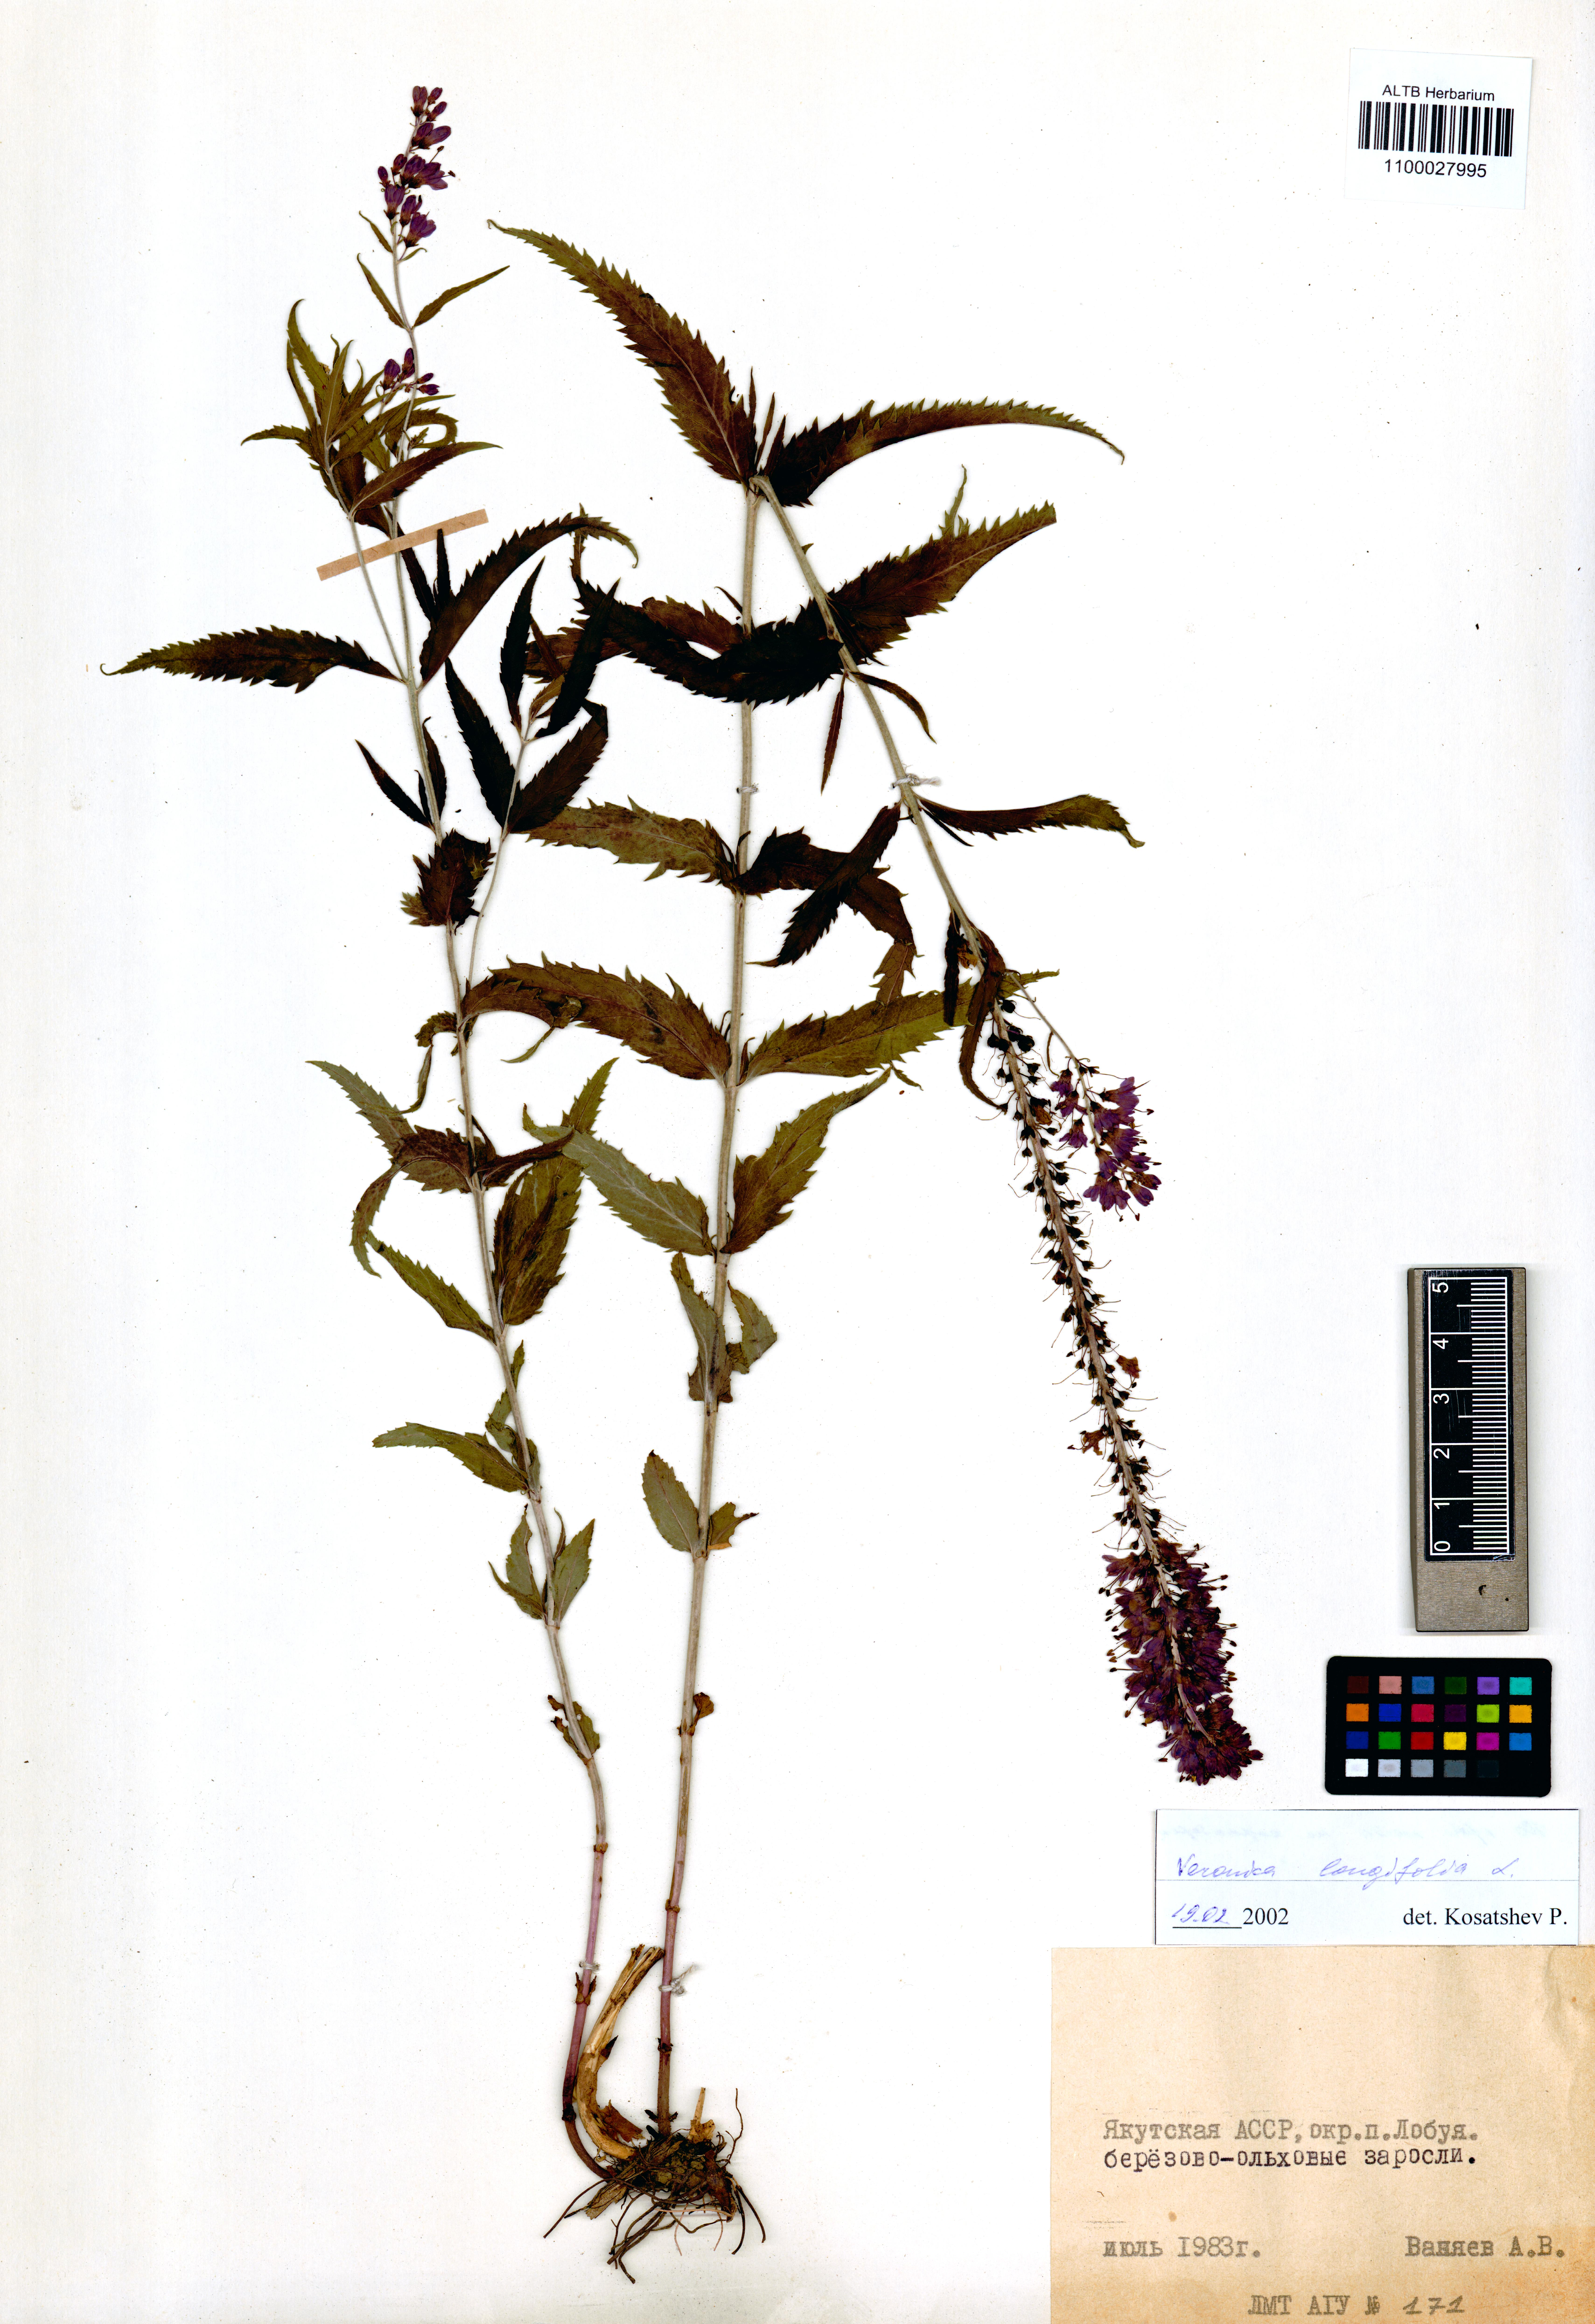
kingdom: Plantae
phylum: Tracheophyta
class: Magnoliopsida
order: Lamiales
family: Plantaginaceae
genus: Veronica
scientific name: Veronica longifolia
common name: Garden speedwell
